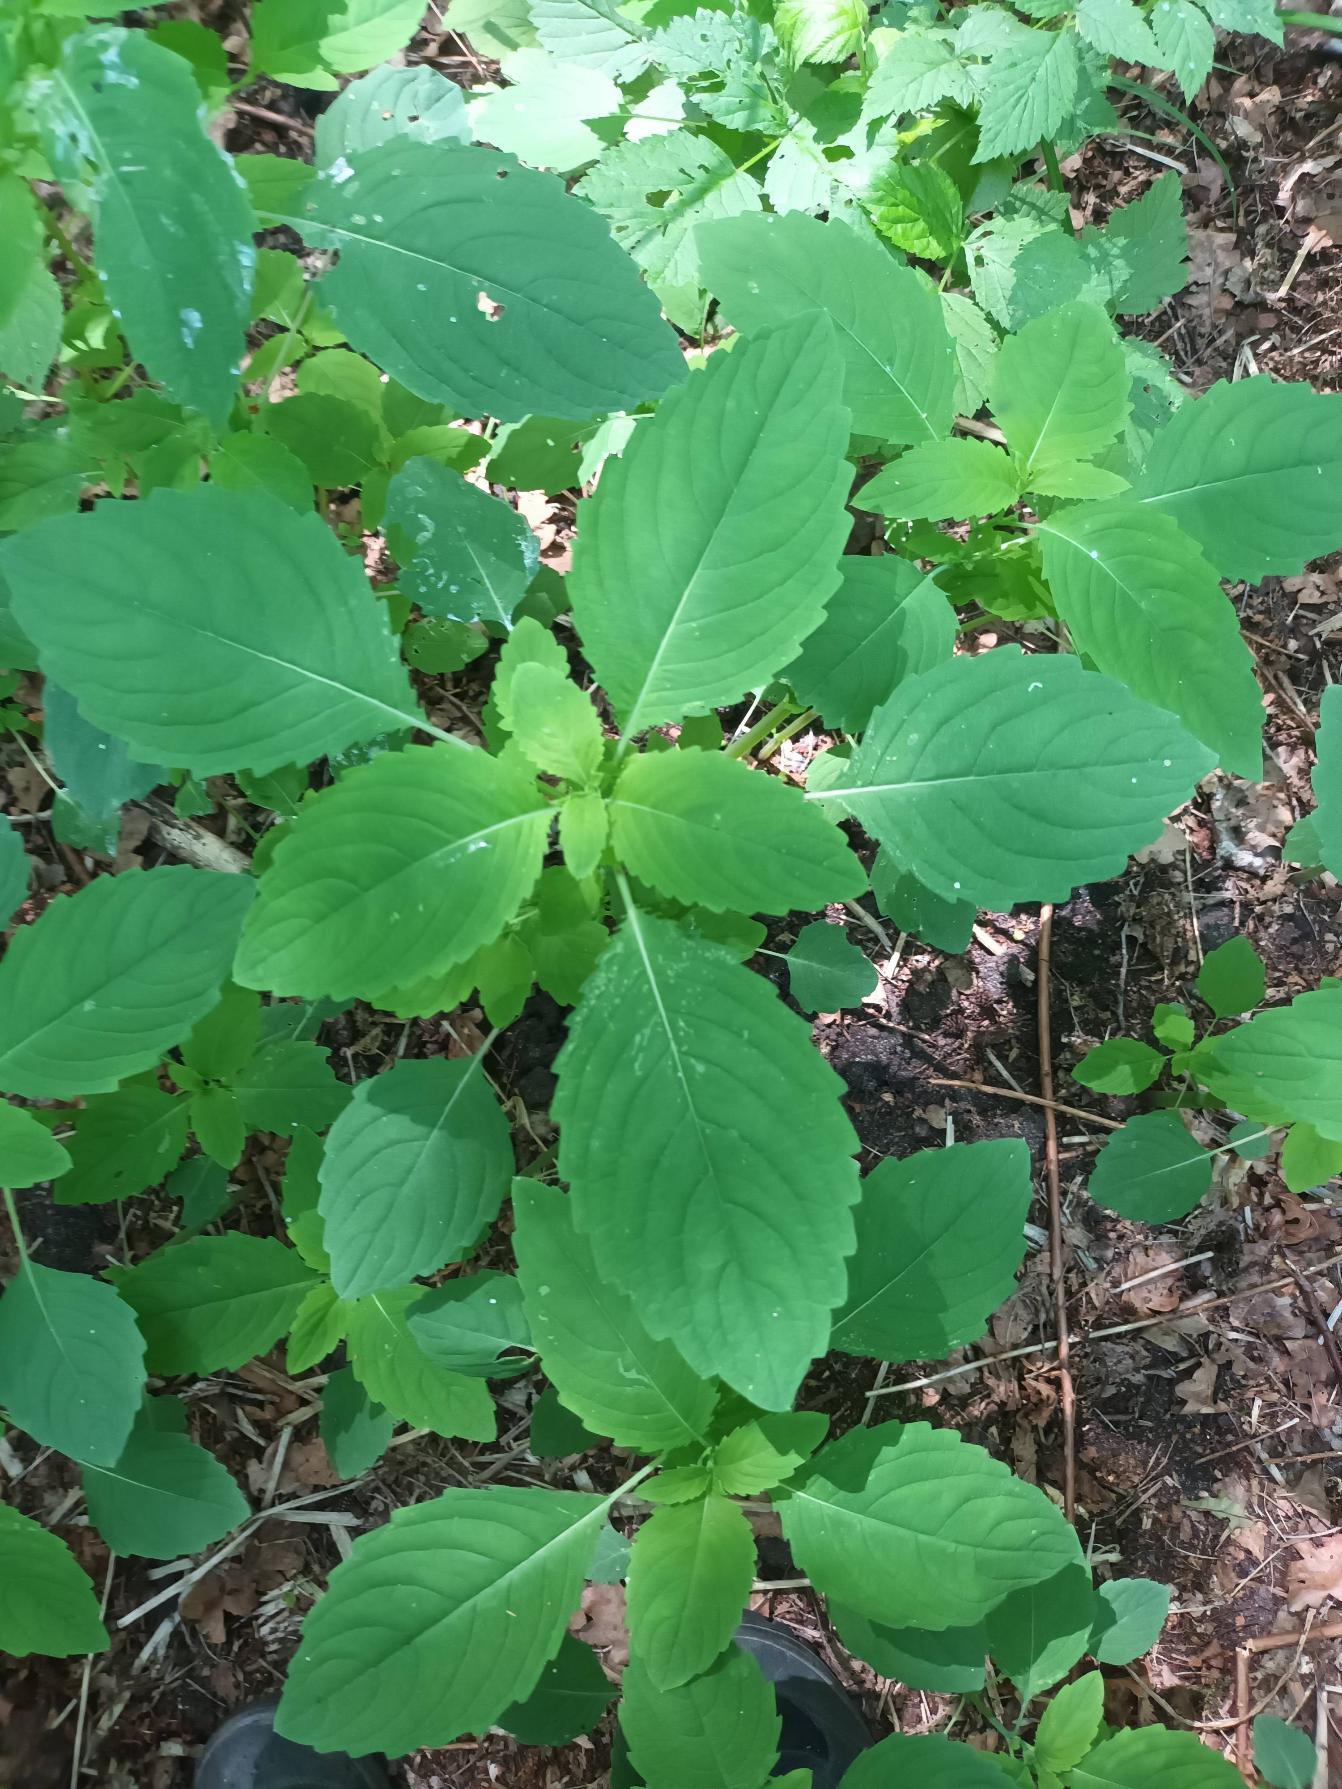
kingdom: Plantae
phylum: Tracheophyta
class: Magnoliopsida
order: Ericales
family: Balsaminaceae
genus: Impatiens
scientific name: Impatiens noli-tangere
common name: Spring-balsamin
